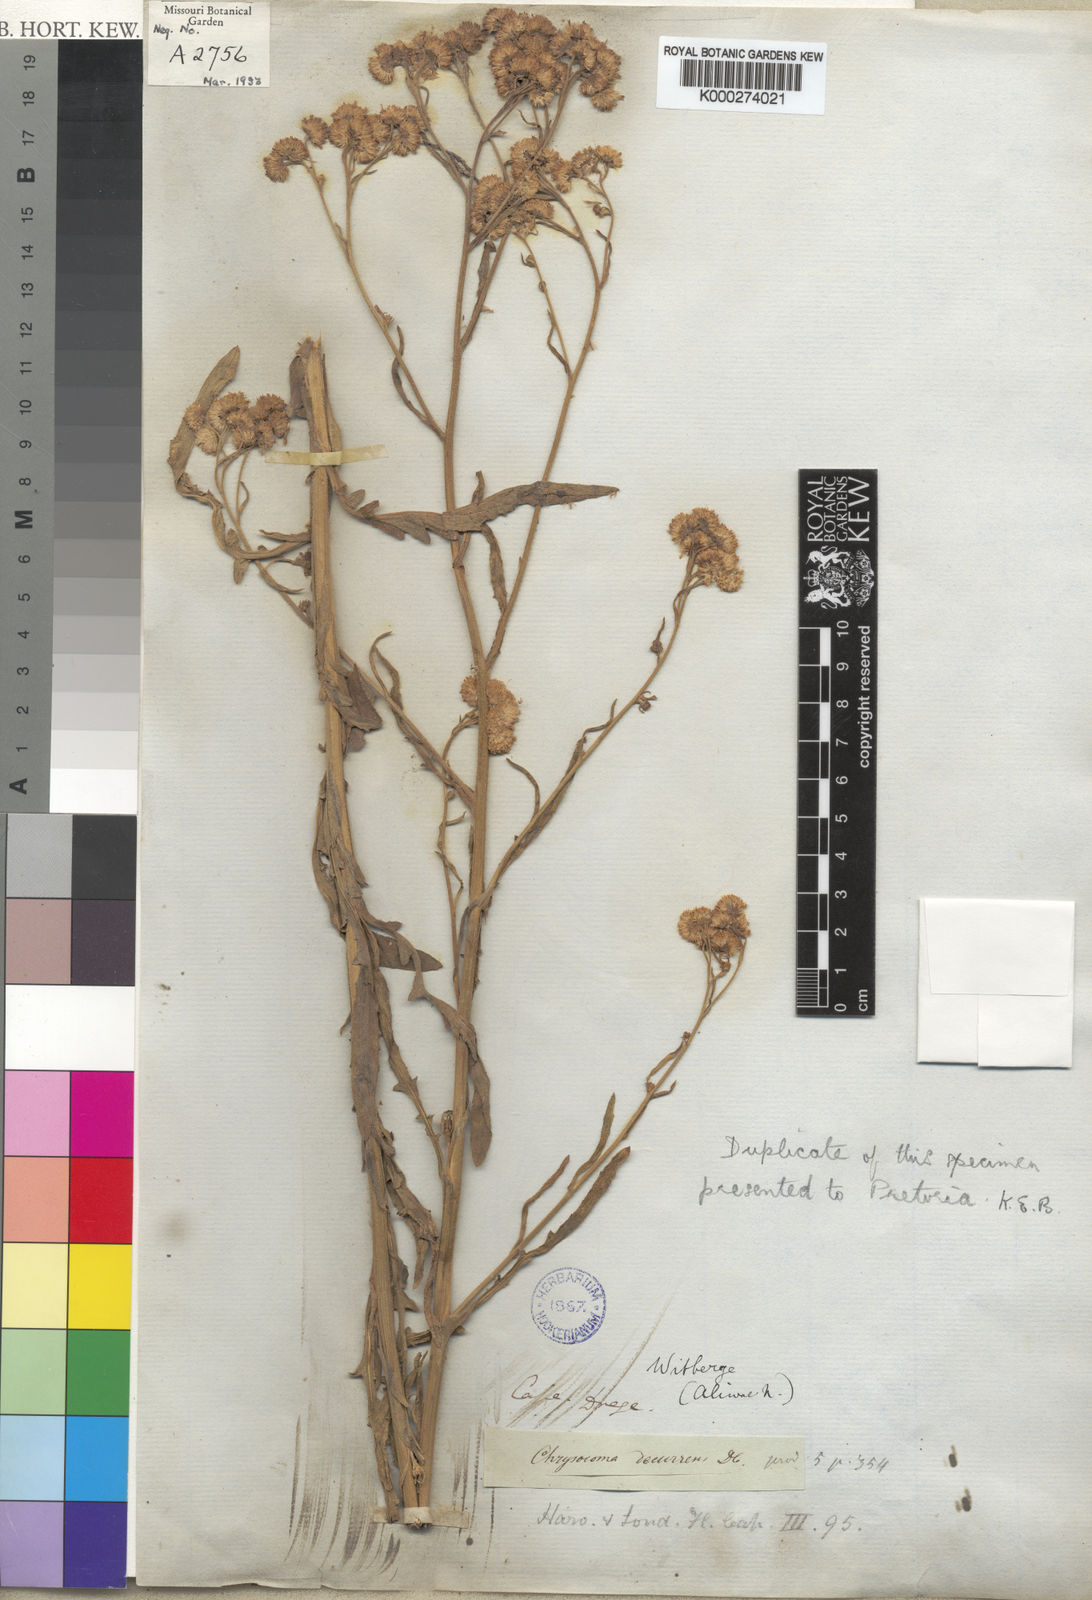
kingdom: Plantae
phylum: Tracheophyta
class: Magnoliopsida
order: Asterales
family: Asteraceae
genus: Heteromma
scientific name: Heteromma decurrens
